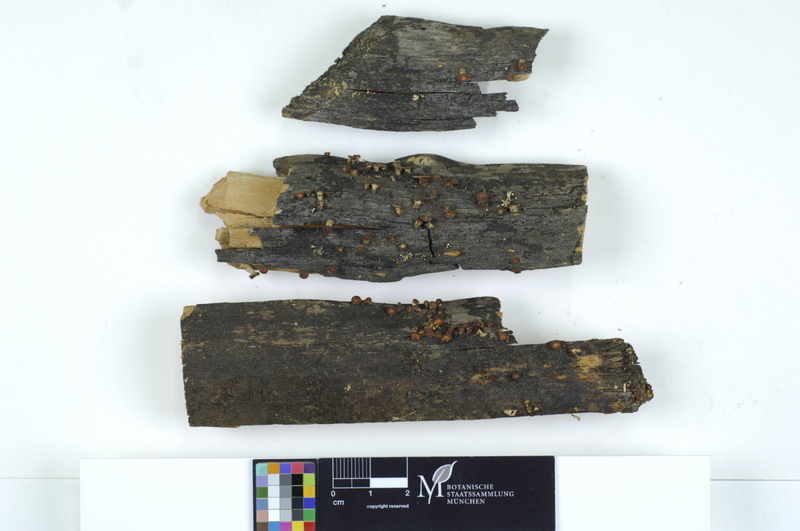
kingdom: Fungi
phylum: Basidiomycota
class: Dacrymycetes
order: Dacrymycetales
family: Dacrymycetaceae
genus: Ditiola
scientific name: Ditiola radicata
